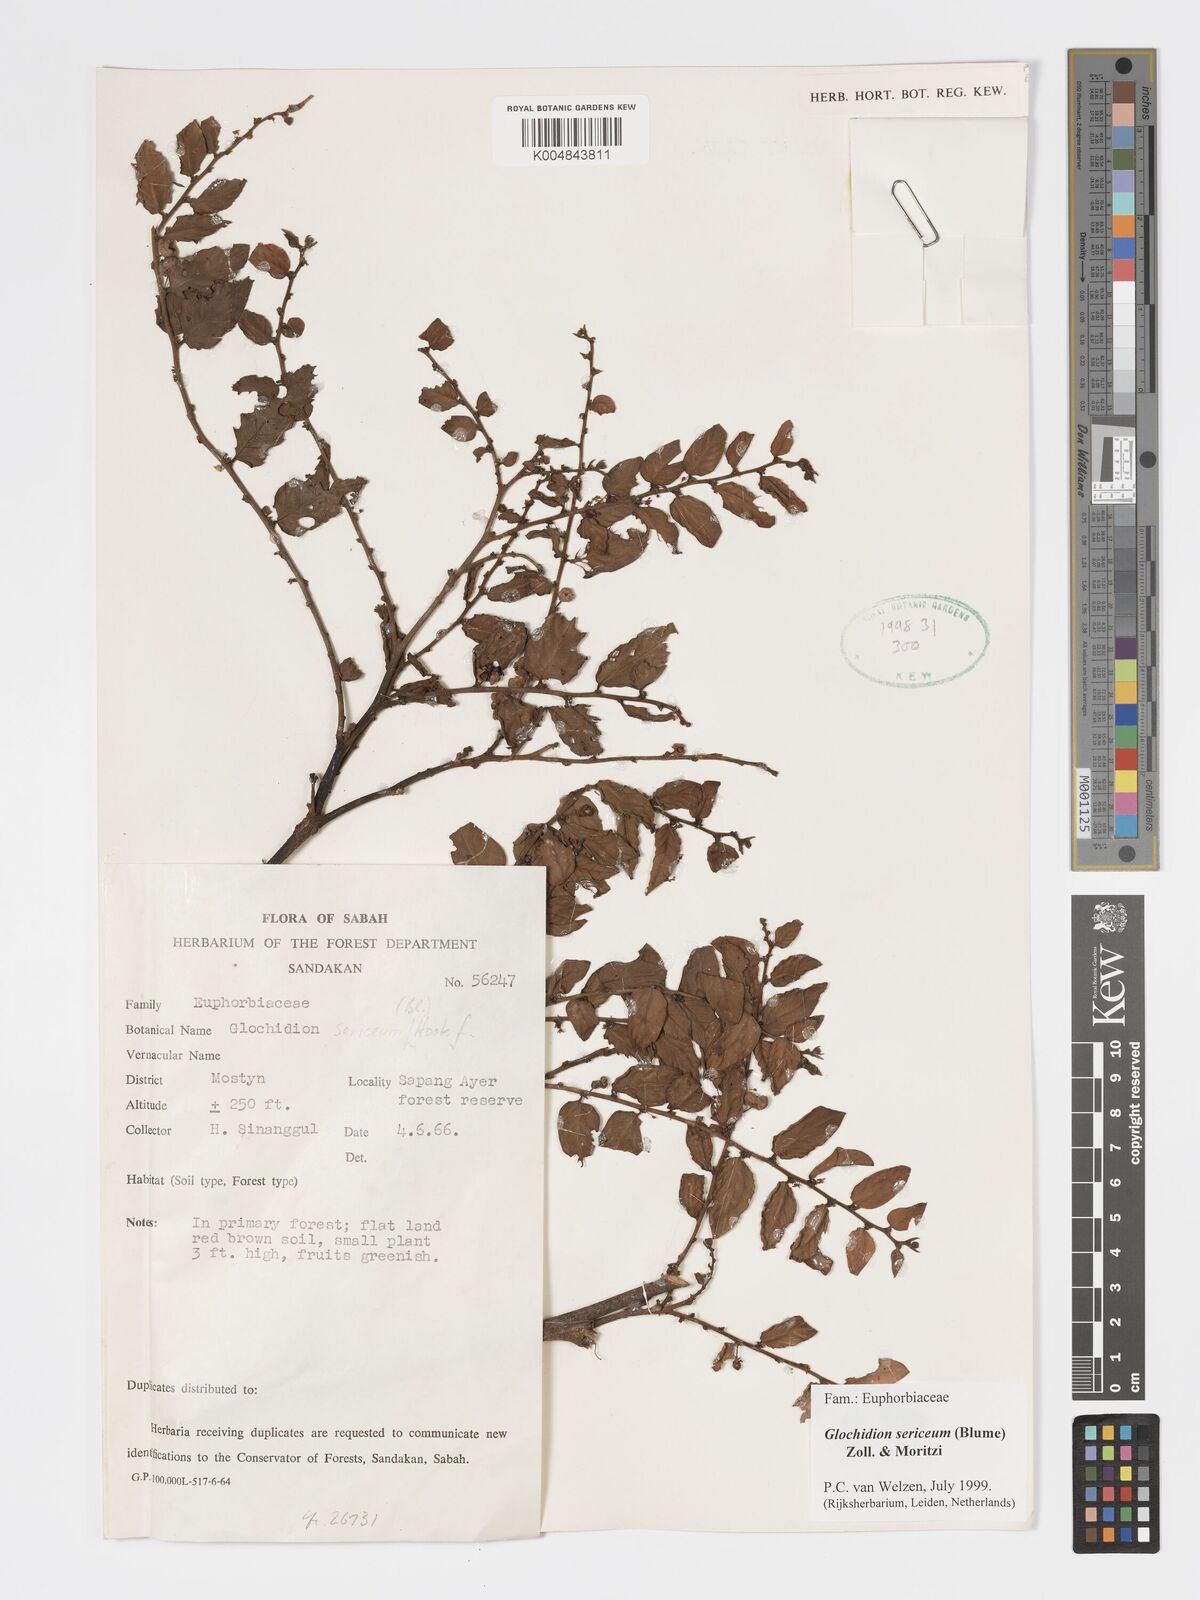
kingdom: Plantae
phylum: Tracheophyta
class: Magnoliopsida
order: Malpighiales
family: Phyllanthaceae
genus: Glochidion
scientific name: Glochidion sericeum
